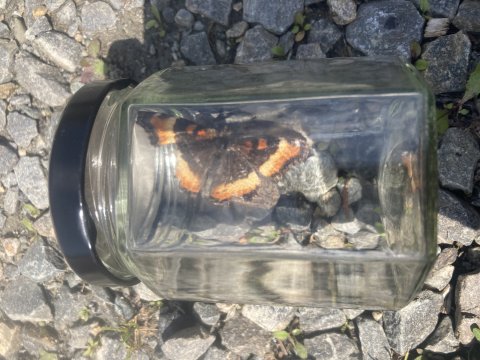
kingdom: Animalia
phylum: Arthropoda
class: Insecta
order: Lepidoptera
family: Nymphalidae
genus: Aglais
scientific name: Aglais milberti
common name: Milbert's Tortoiseshell
